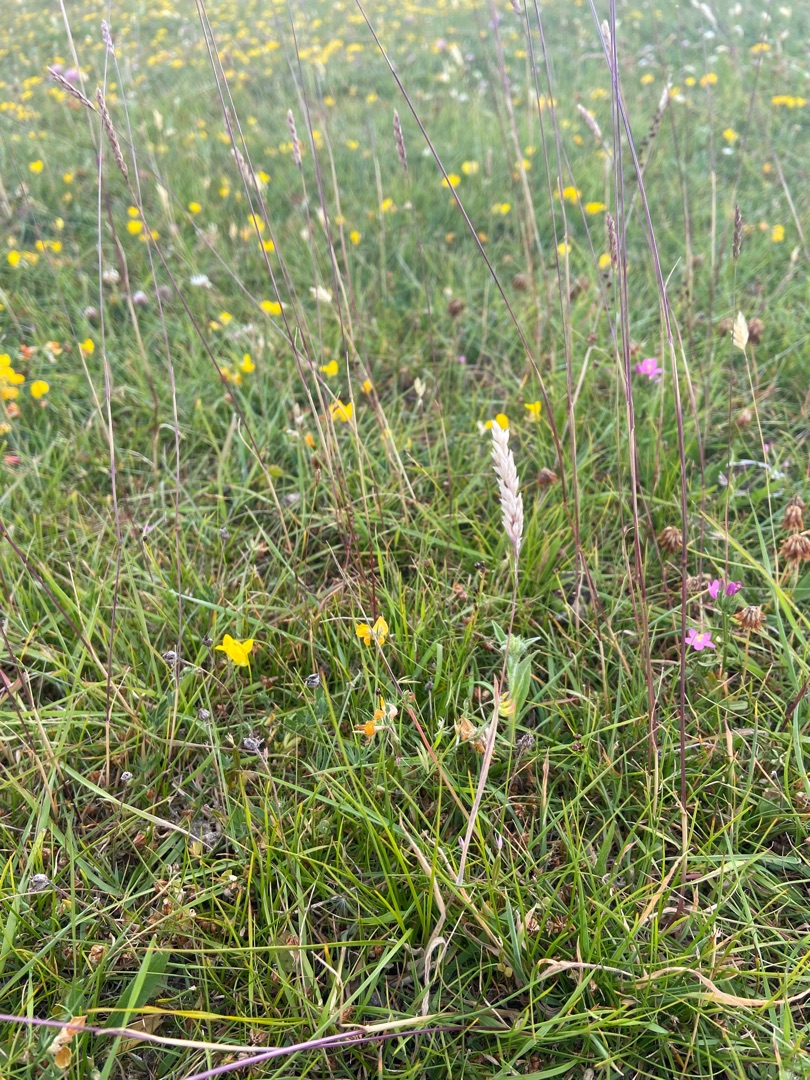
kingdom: Plantae
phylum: Tracheophyta
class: Liliopsida
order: Poales
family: Poaceae
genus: Holcus
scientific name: Holcus lanatus
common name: Fløjlsgræs
